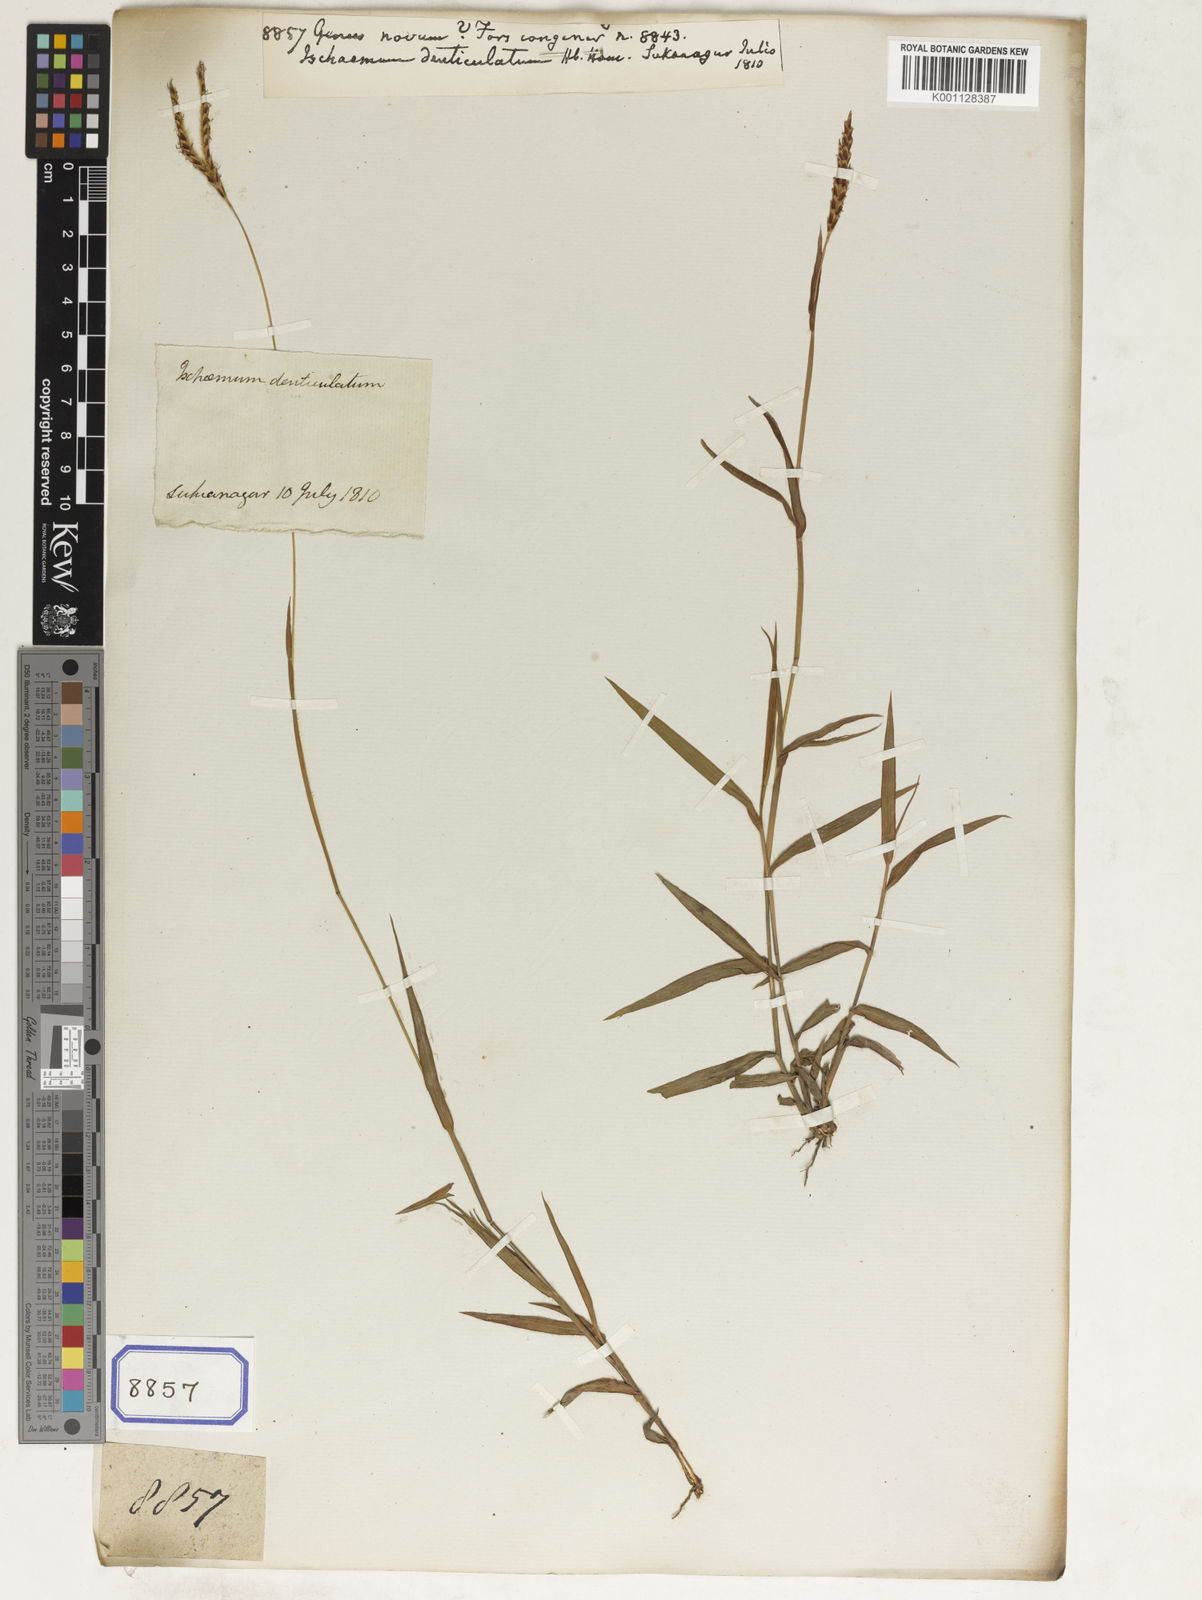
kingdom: Plantae
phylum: Tracheophyta
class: Liliopsida
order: Poales
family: Poaceae
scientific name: Poaceae
